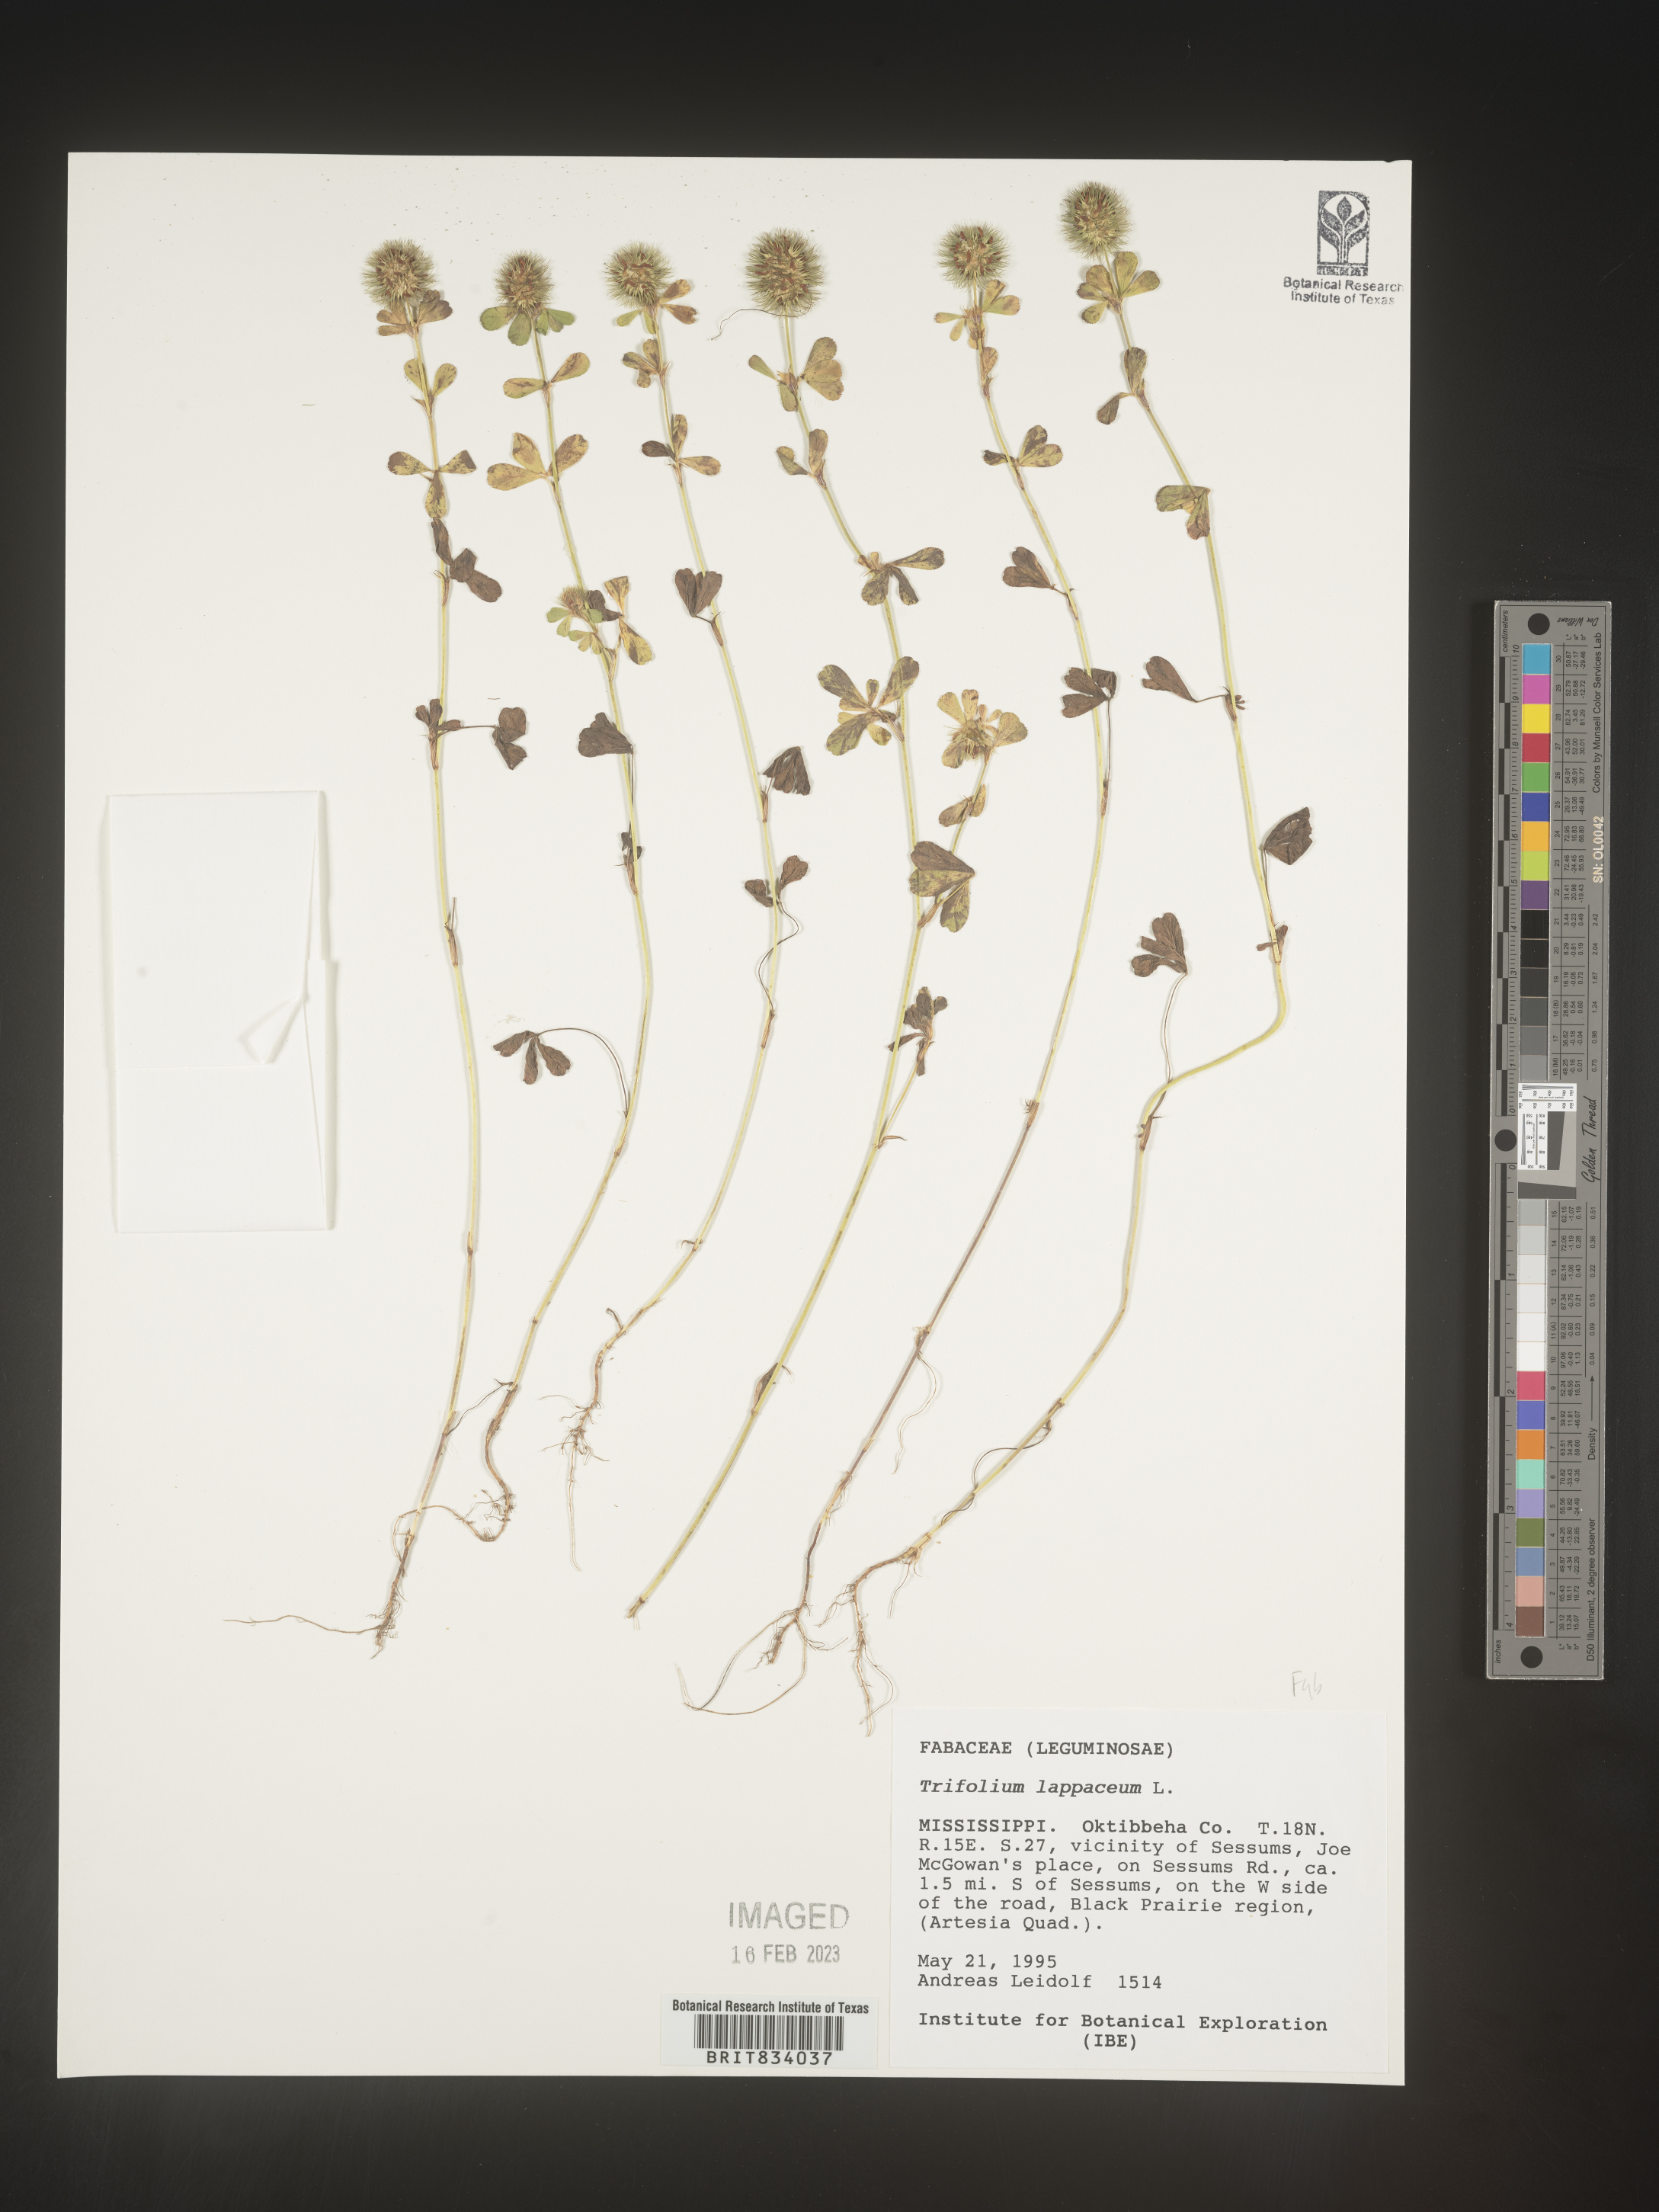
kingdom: Plantae
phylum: Tracheophyta
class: Magnoliopsida
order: Fabales
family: Fabaceae
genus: Trifolium
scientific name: Trifolium
